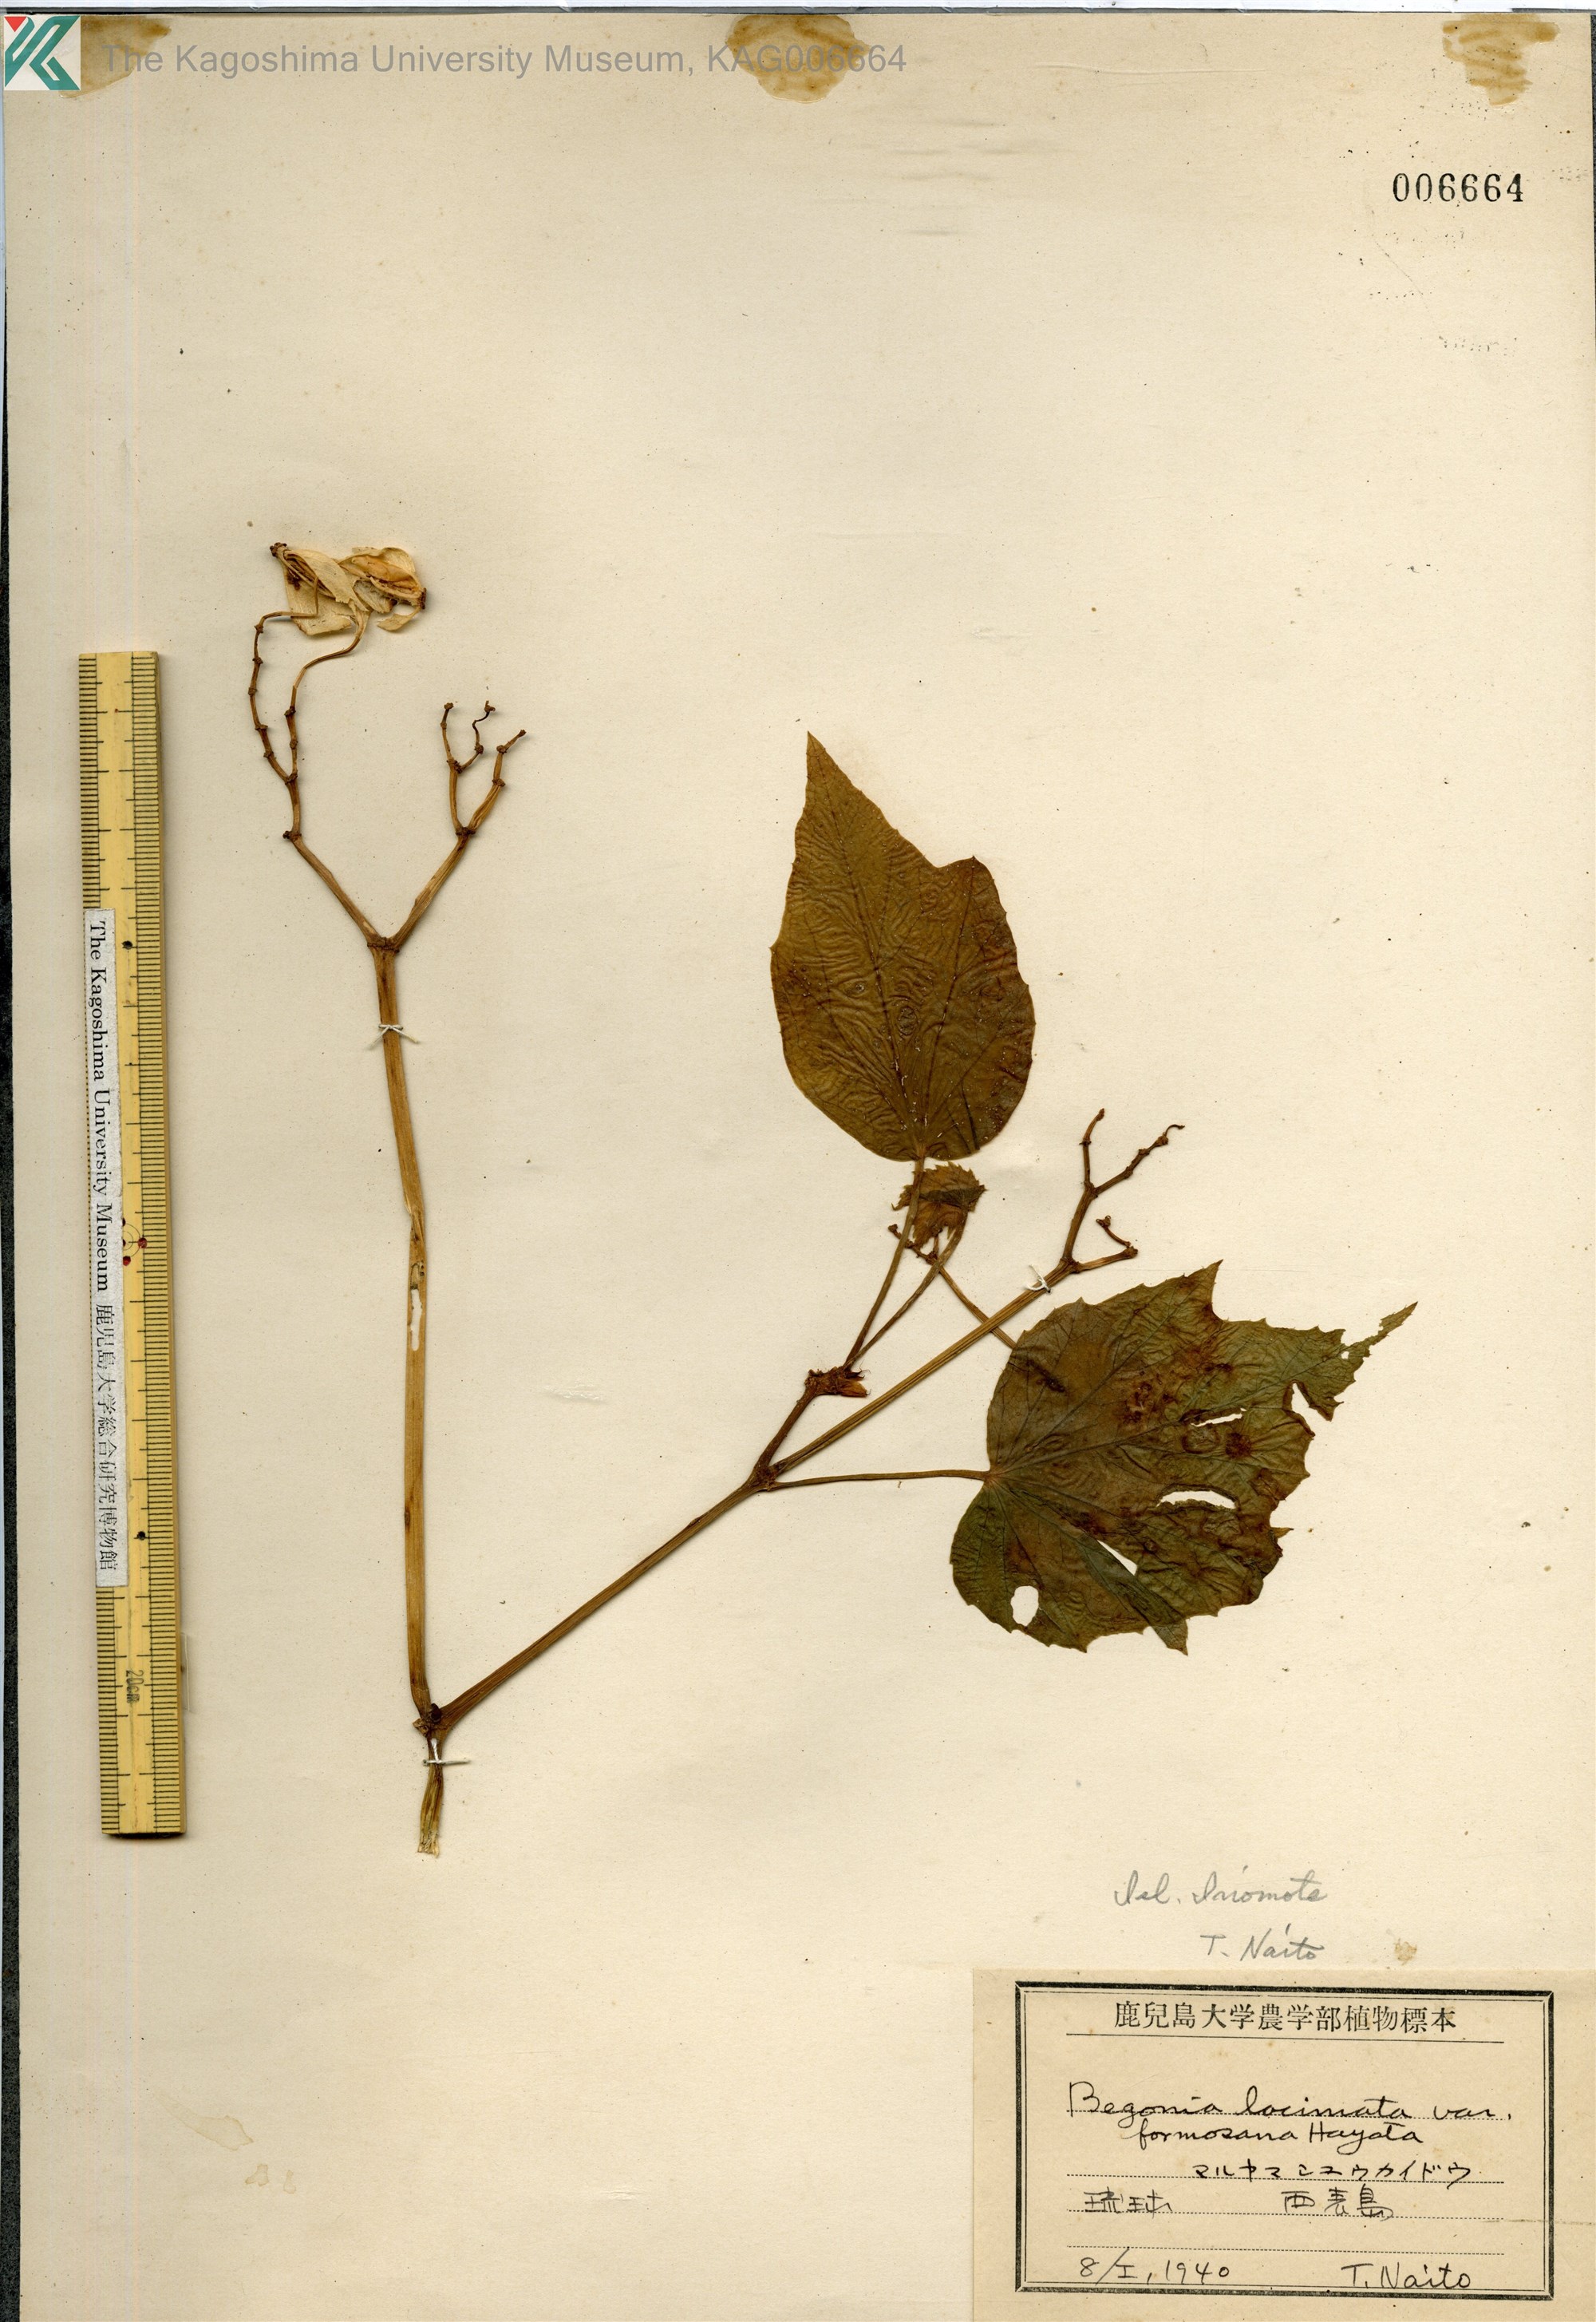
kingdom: Plantae
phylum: Tracheophyta
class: Magnoliopsida
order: Cucurbitales
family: Begoniaceae
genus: Begonia
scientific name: Begonia palmata
